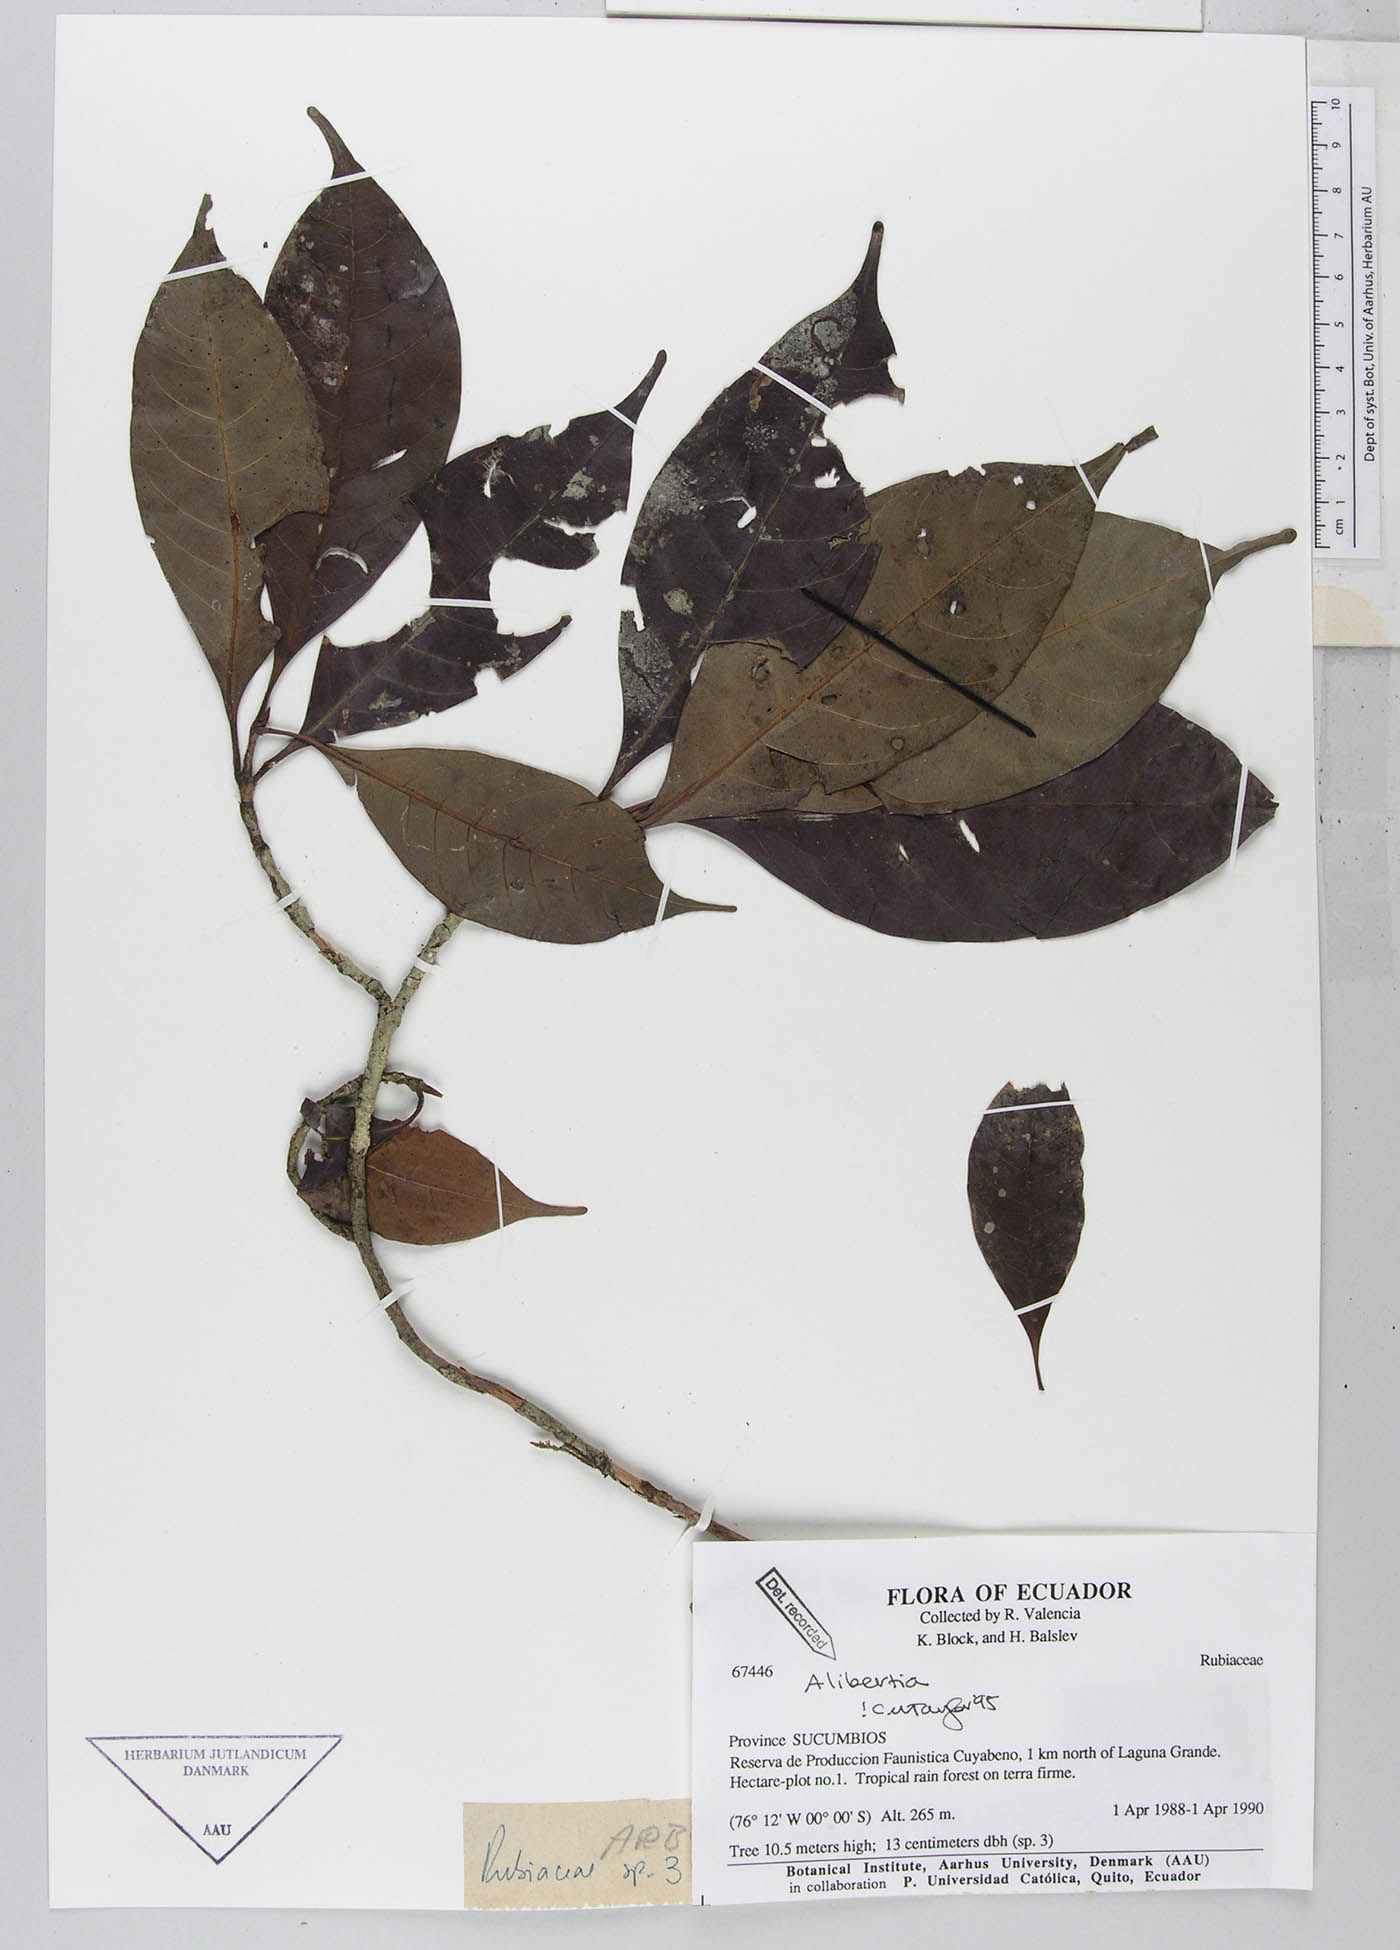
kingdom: Plantae
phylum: Tracheophyta
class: Magnoliopsida
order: Gentianales
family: Rubiaceae
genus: Alibertia
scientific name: Alibertia
